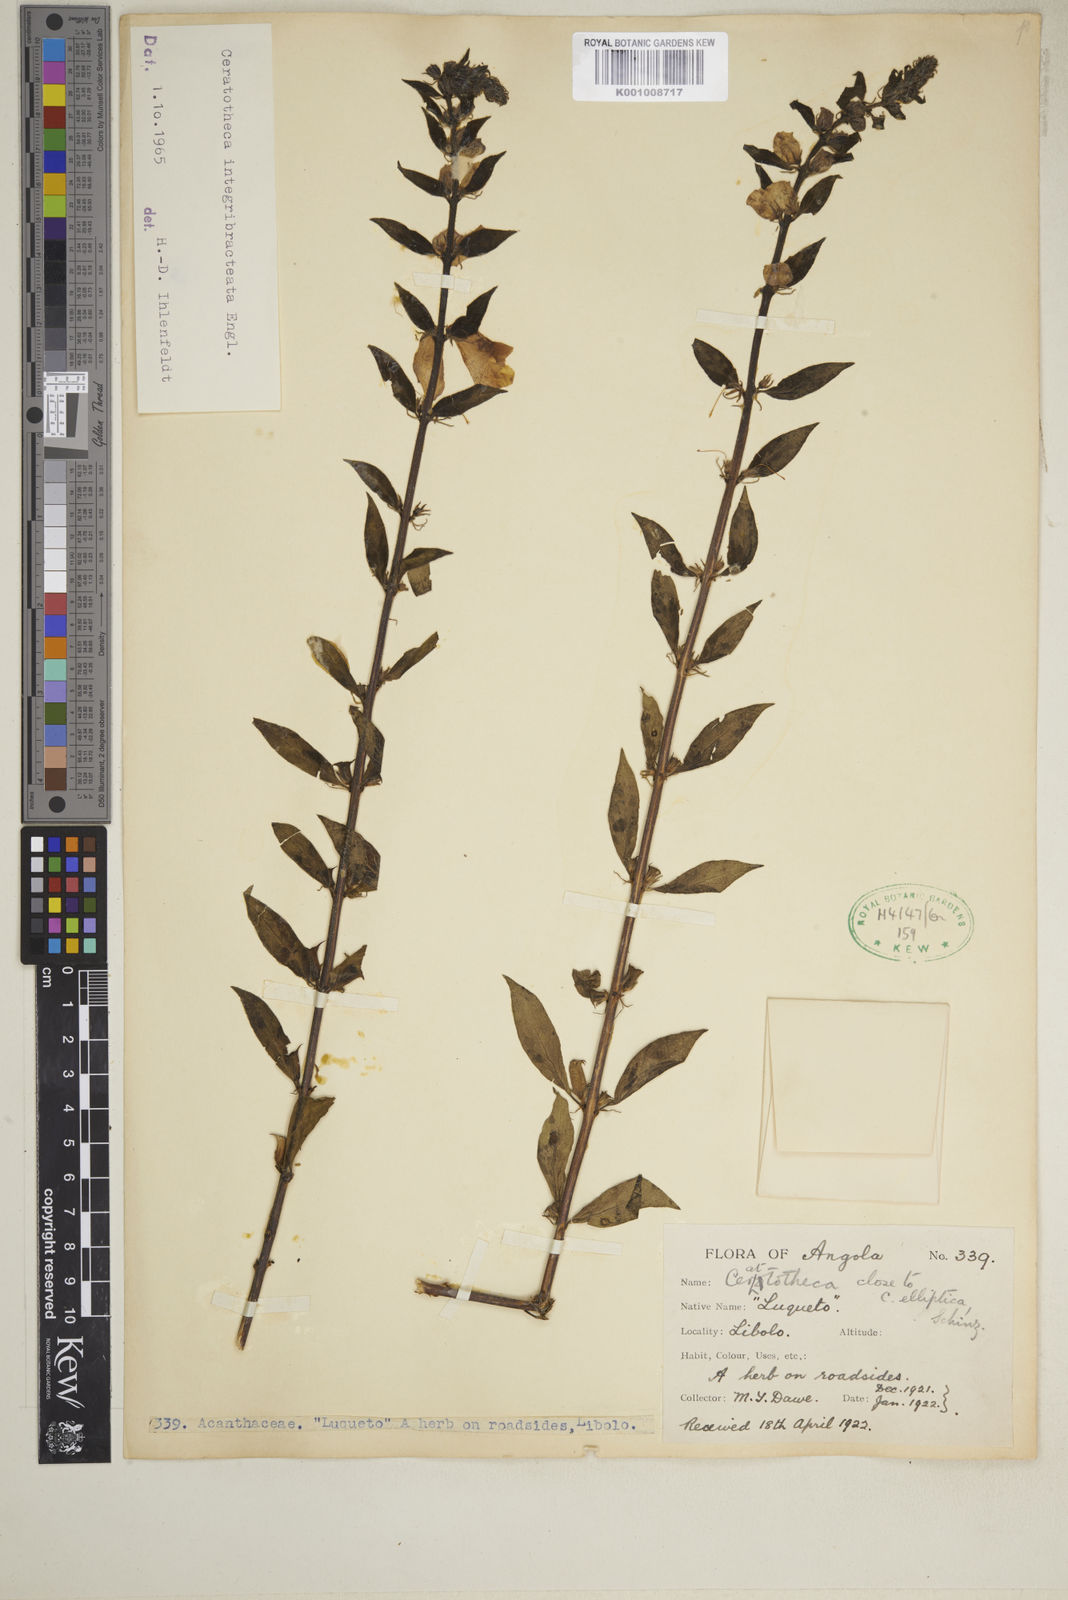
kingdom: Plantae
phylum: Tracheophyta
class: Magnoliopsida
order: Lamiales
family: Pedaliaceae
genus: Sesamum
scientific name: Sesamum integribracteatum
